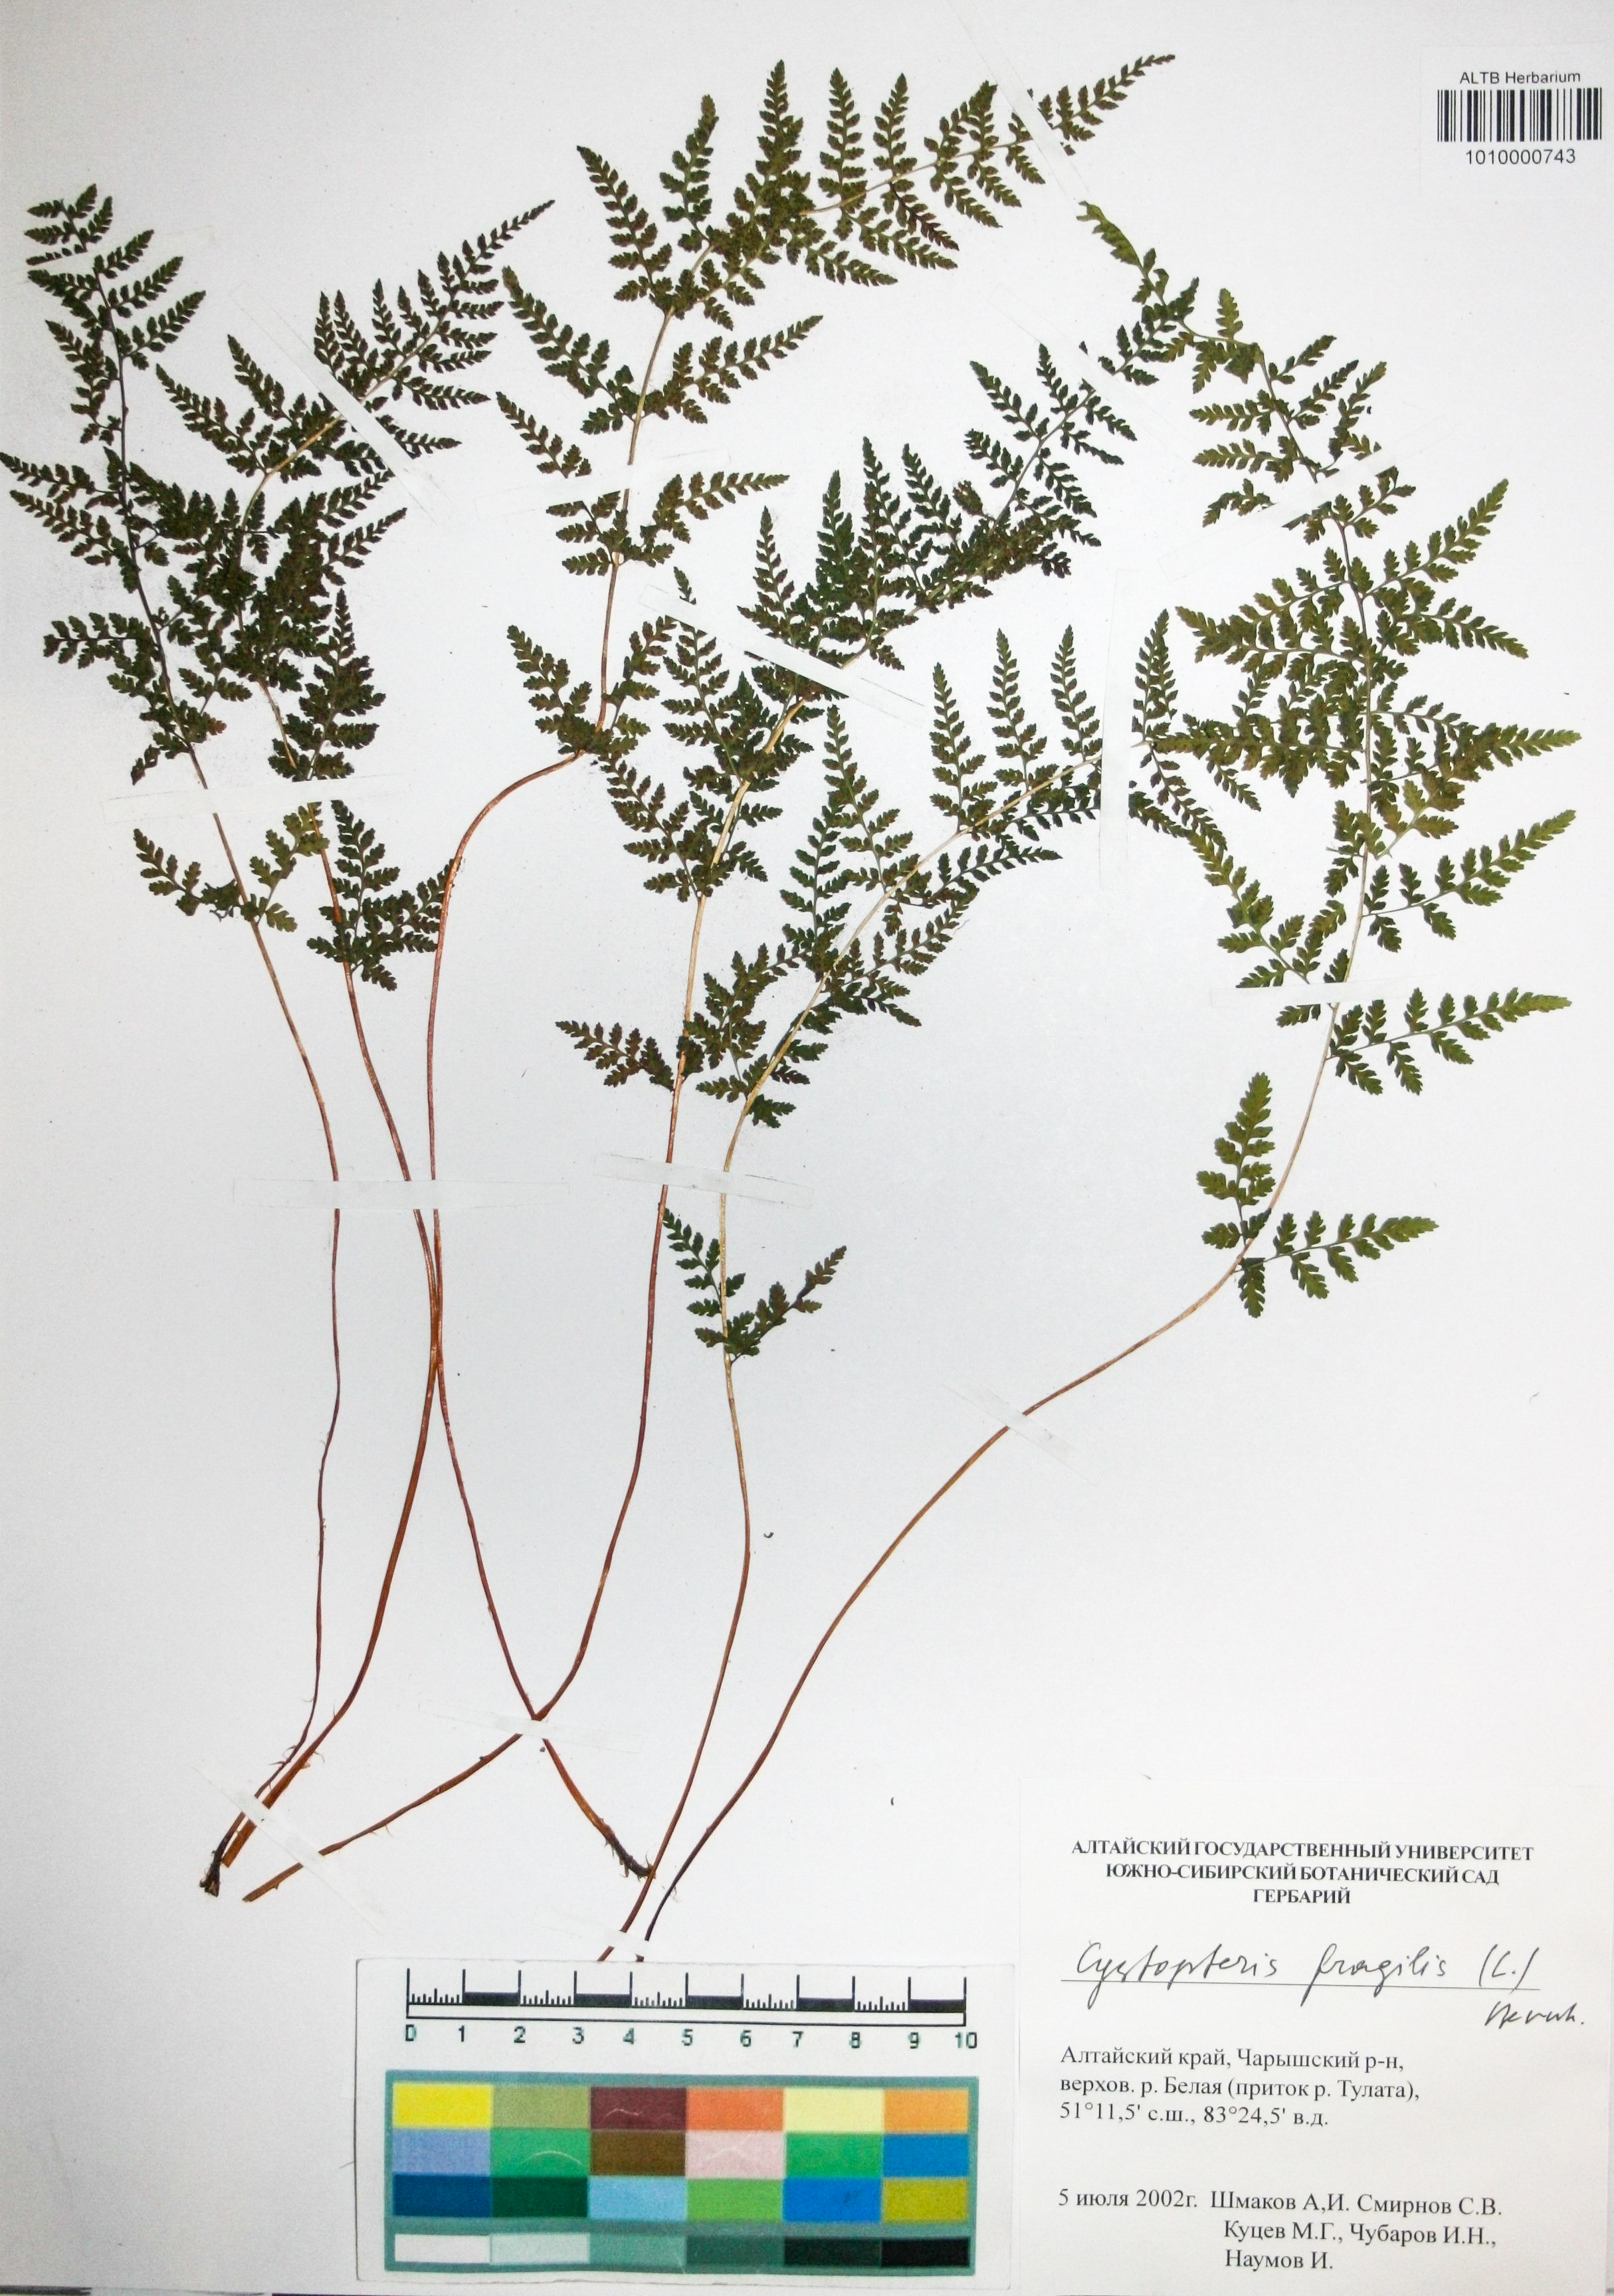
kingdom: Plantae
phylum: Tracheophyta
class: Polypodiopsida
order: Polypodiales
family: Cystopteridaceae
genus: Cystopteris
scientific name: Cystopteris fragilis
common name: Brittle bladder fern
